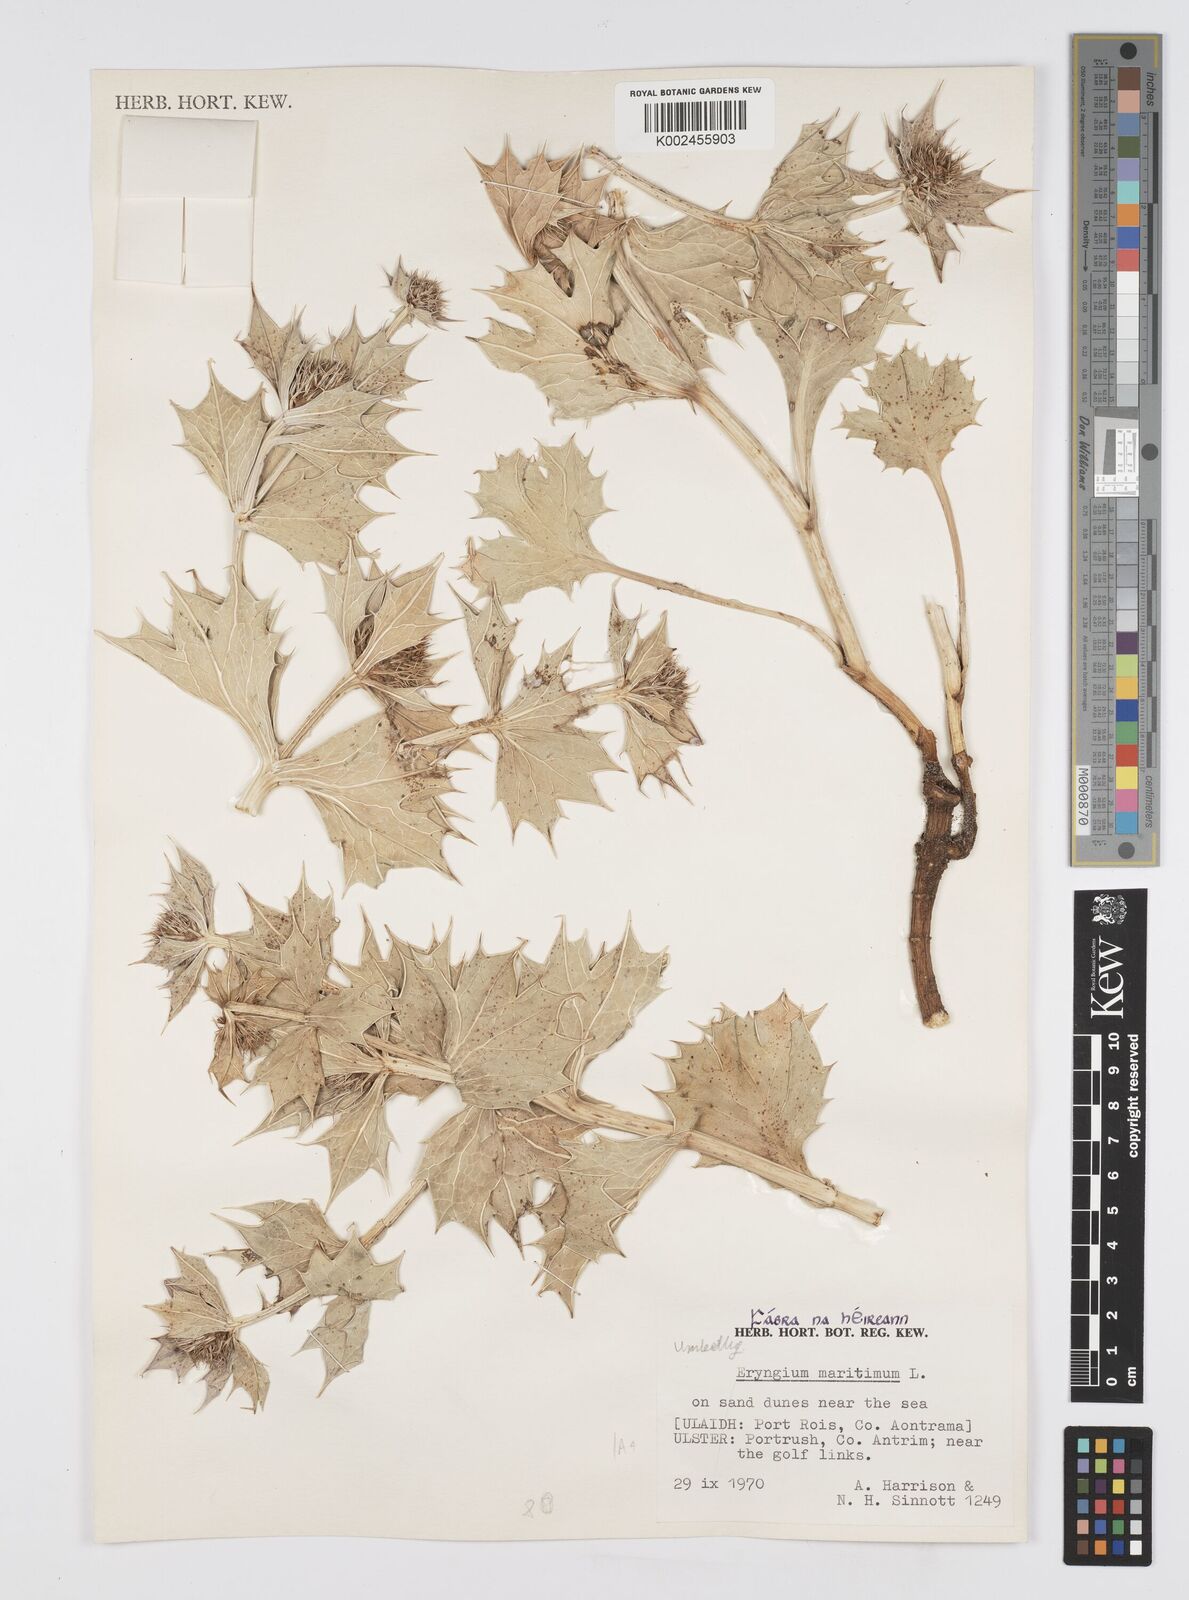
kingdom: Plantae
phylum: Tracheophyta
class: Magnoliopsida
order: Apiales
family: Apiaceae
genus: Eryngium
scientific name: Eryngium maritimum
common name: Sea-holly
